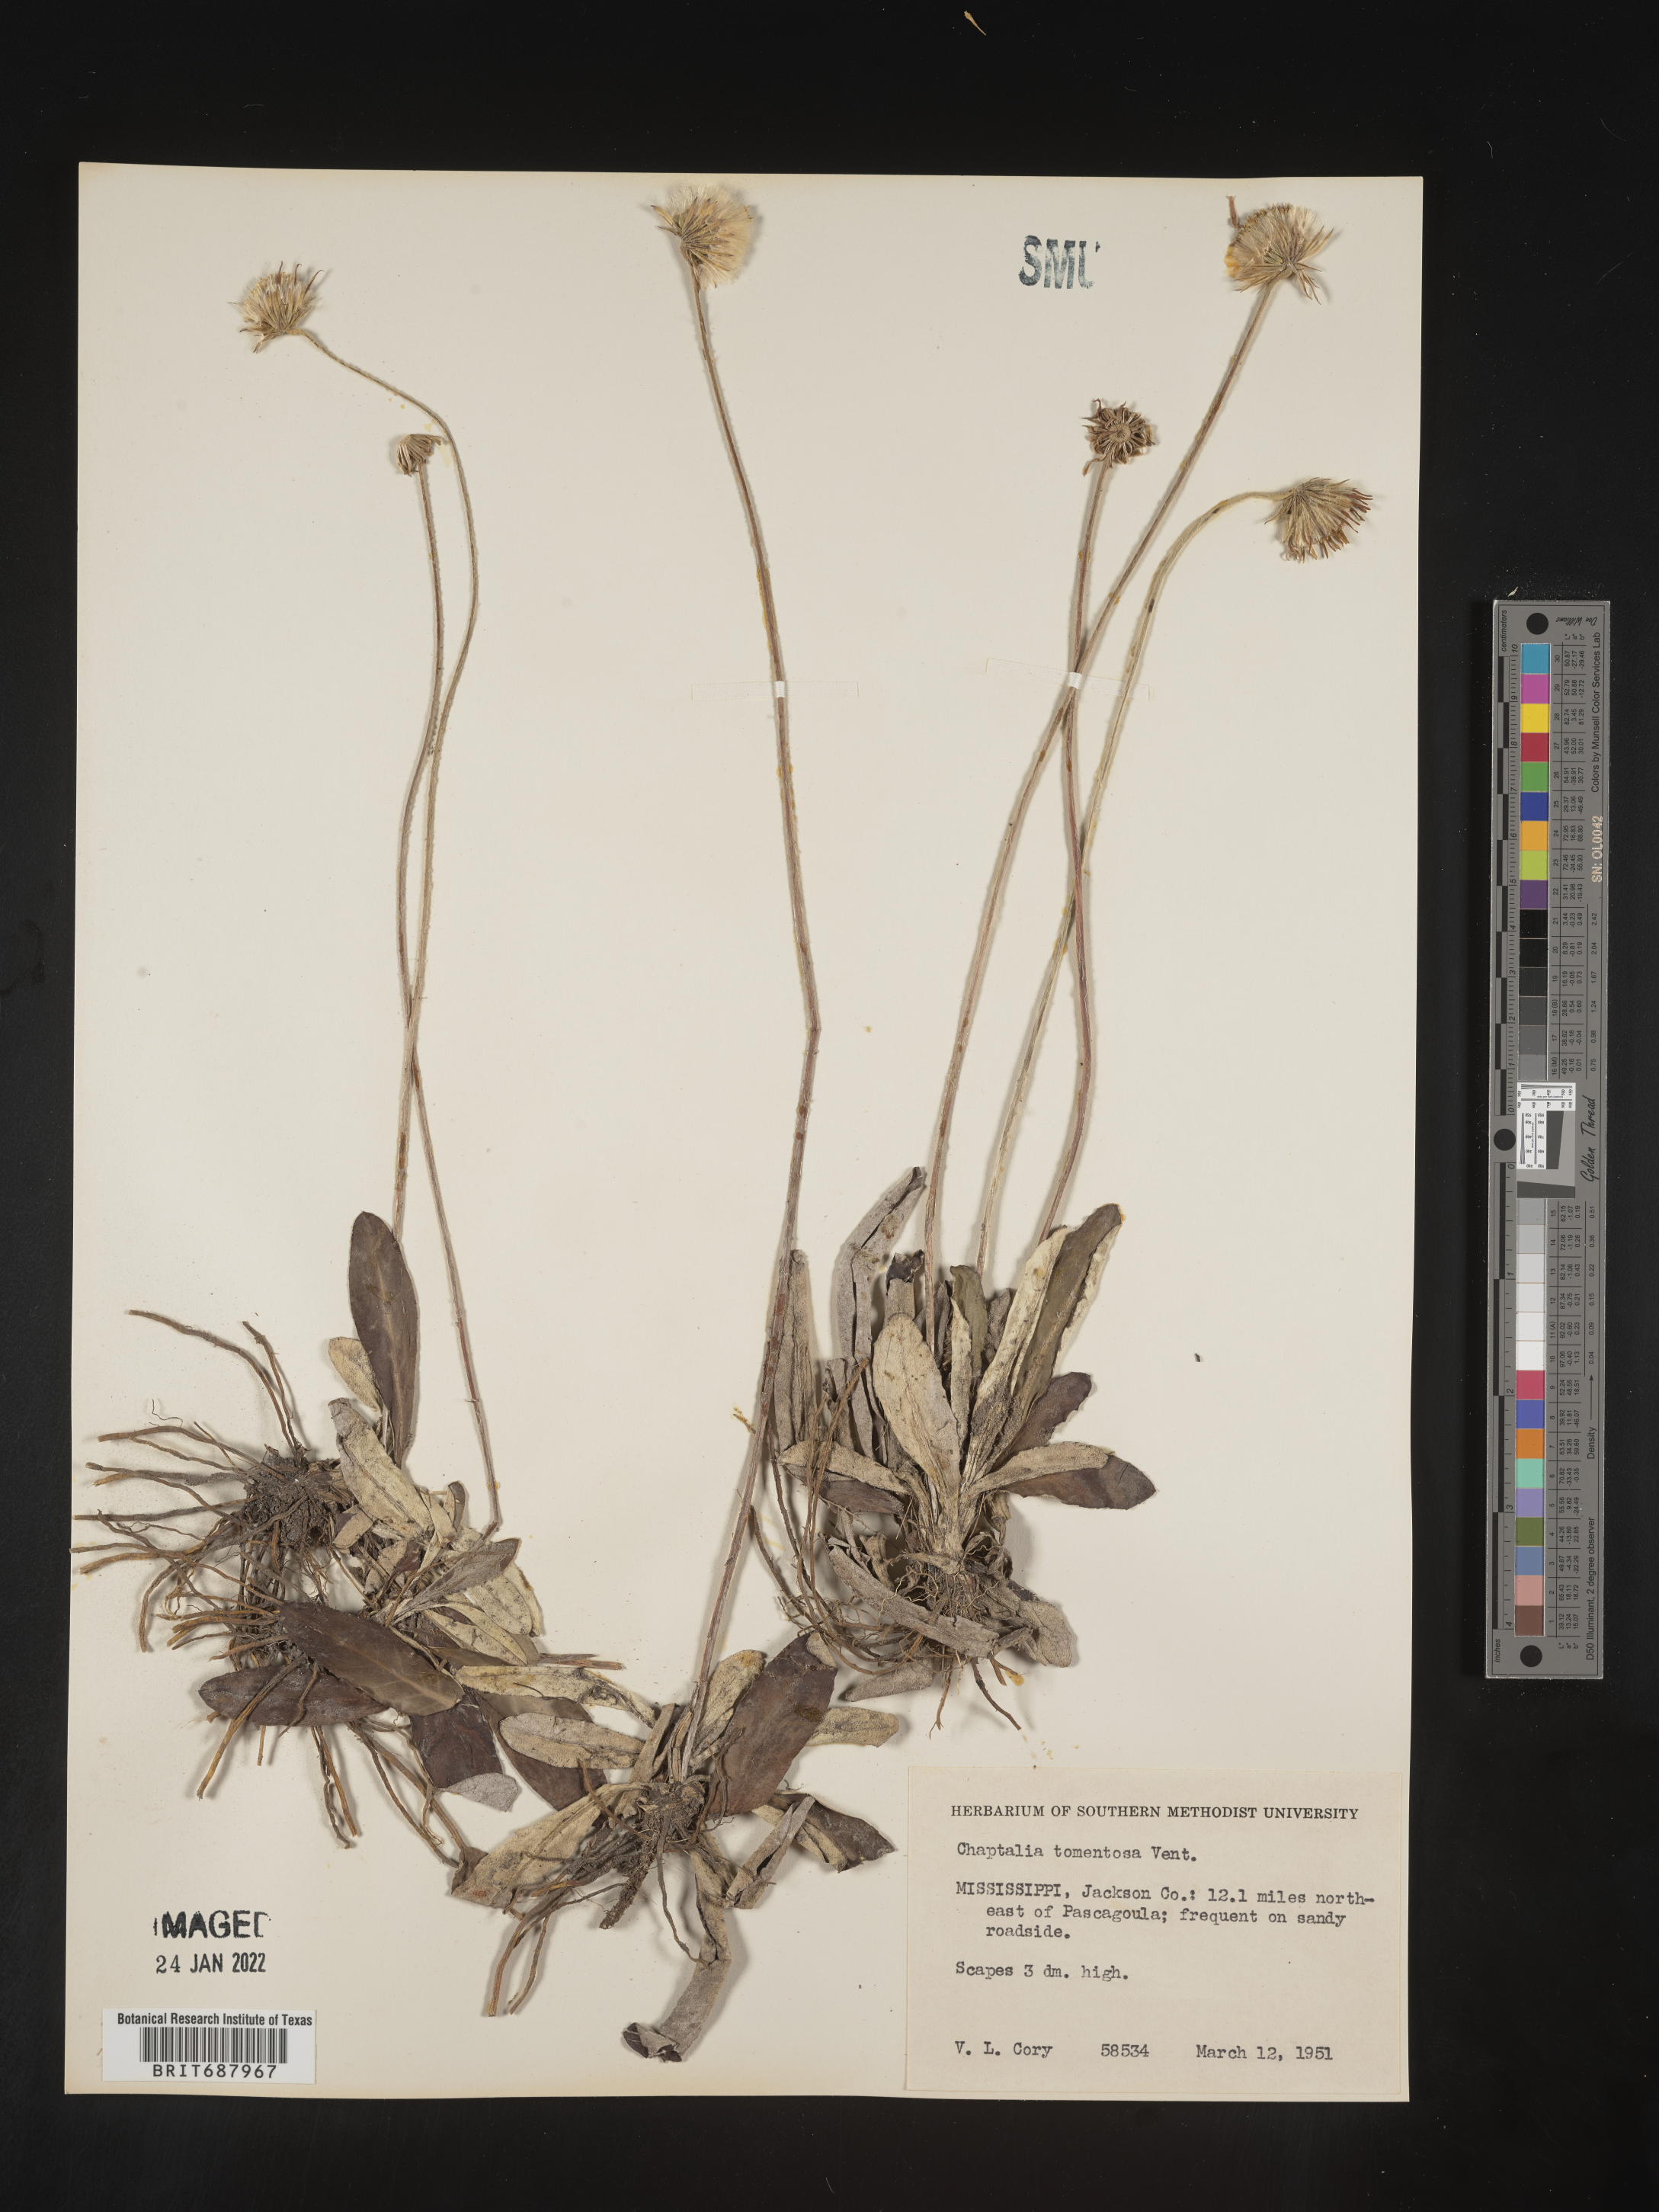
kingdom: Plantae
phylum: Tracheophyta
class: Magnoliopsida
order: Asterales
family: Asteraceae
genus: Chaptalia
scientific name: Chaptalia tomentosa
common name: Woolly sunbonnet
